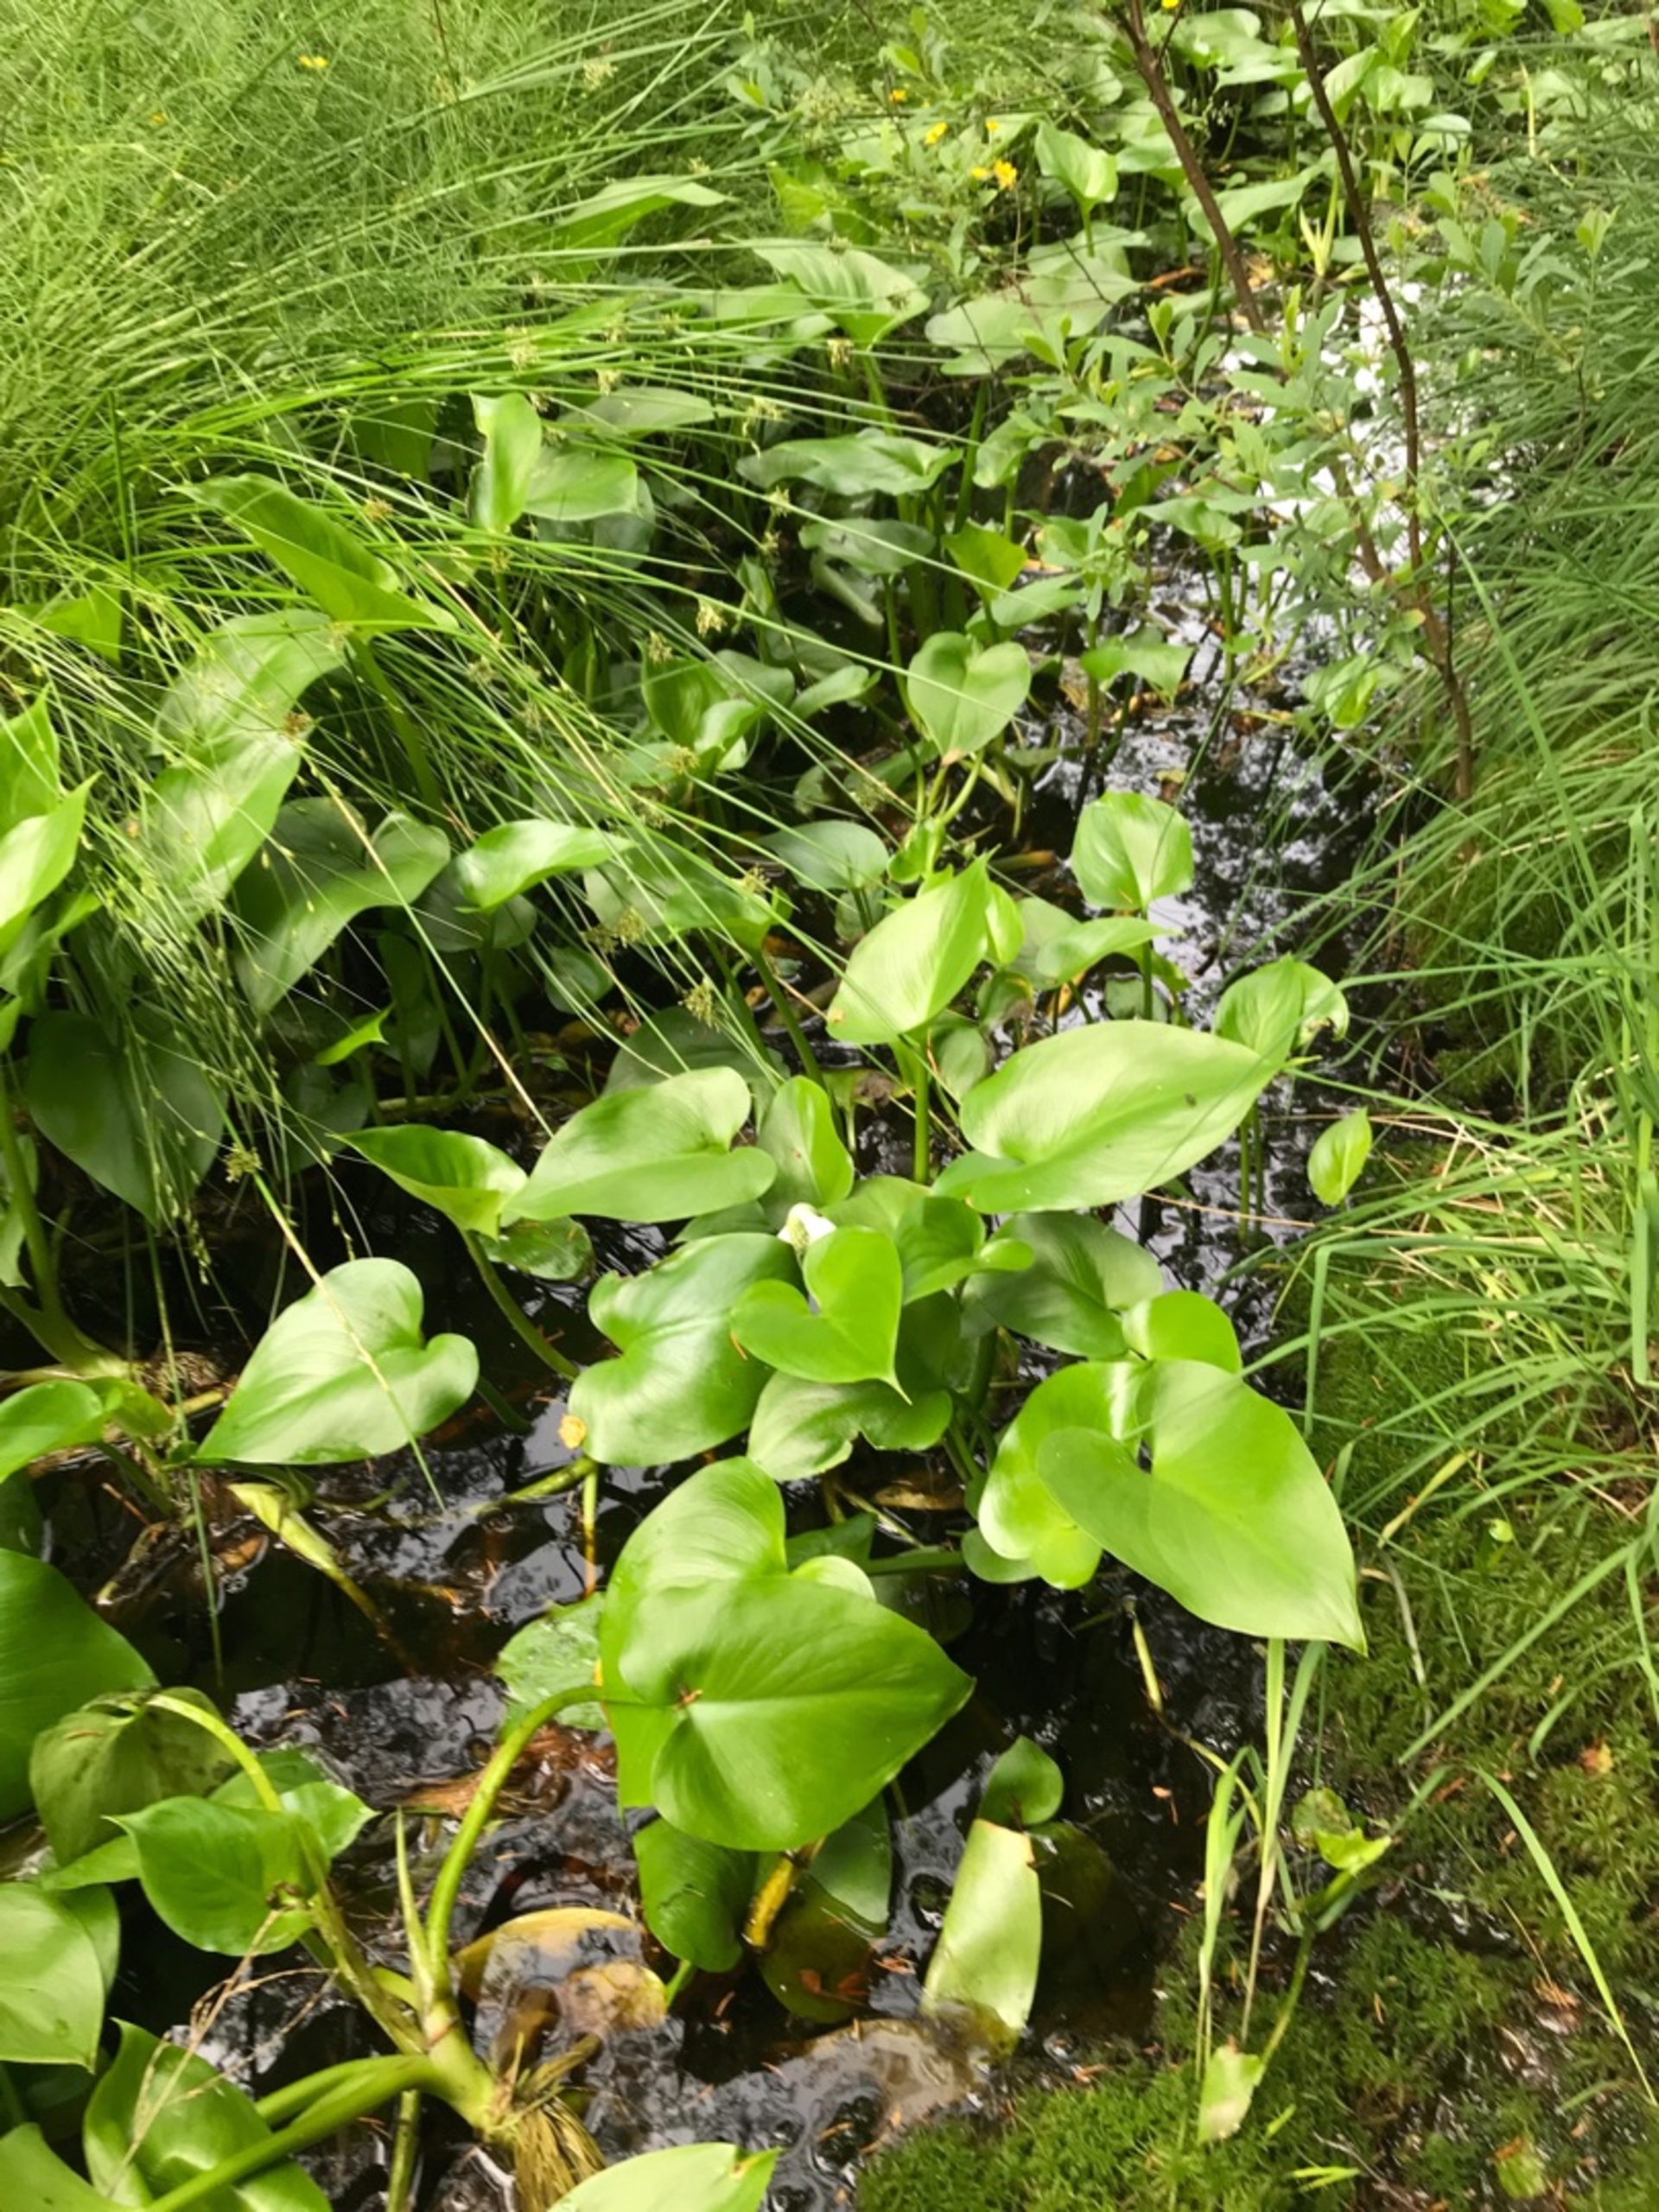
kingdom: Plantae
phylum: Tracheophyta
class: Liliopsida
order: Alismatales
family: Araceae
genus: Calla
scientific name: Calla palustris
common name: Kærmysse
